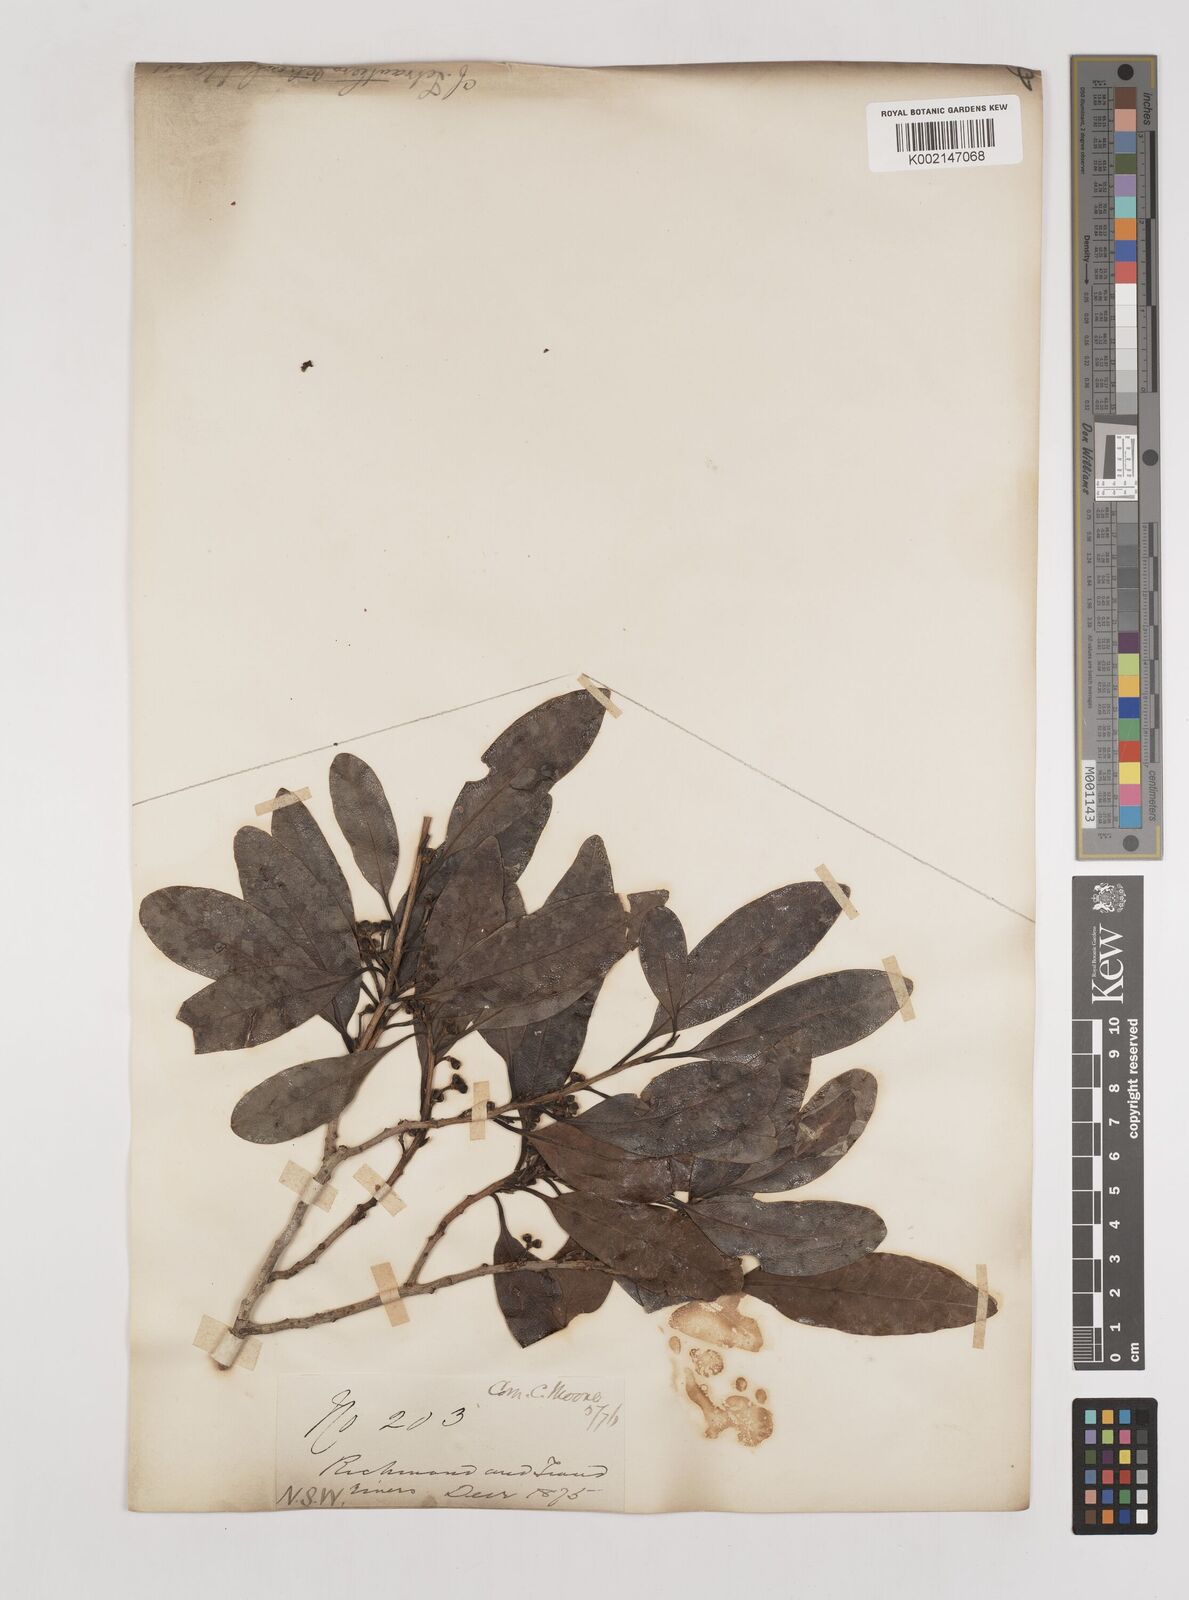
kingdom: Plantae
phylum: Tracheophyta
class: Magnoliopsida
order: Laurales
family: Lauraceae
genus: Litsea
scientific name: Litsea reticulata
